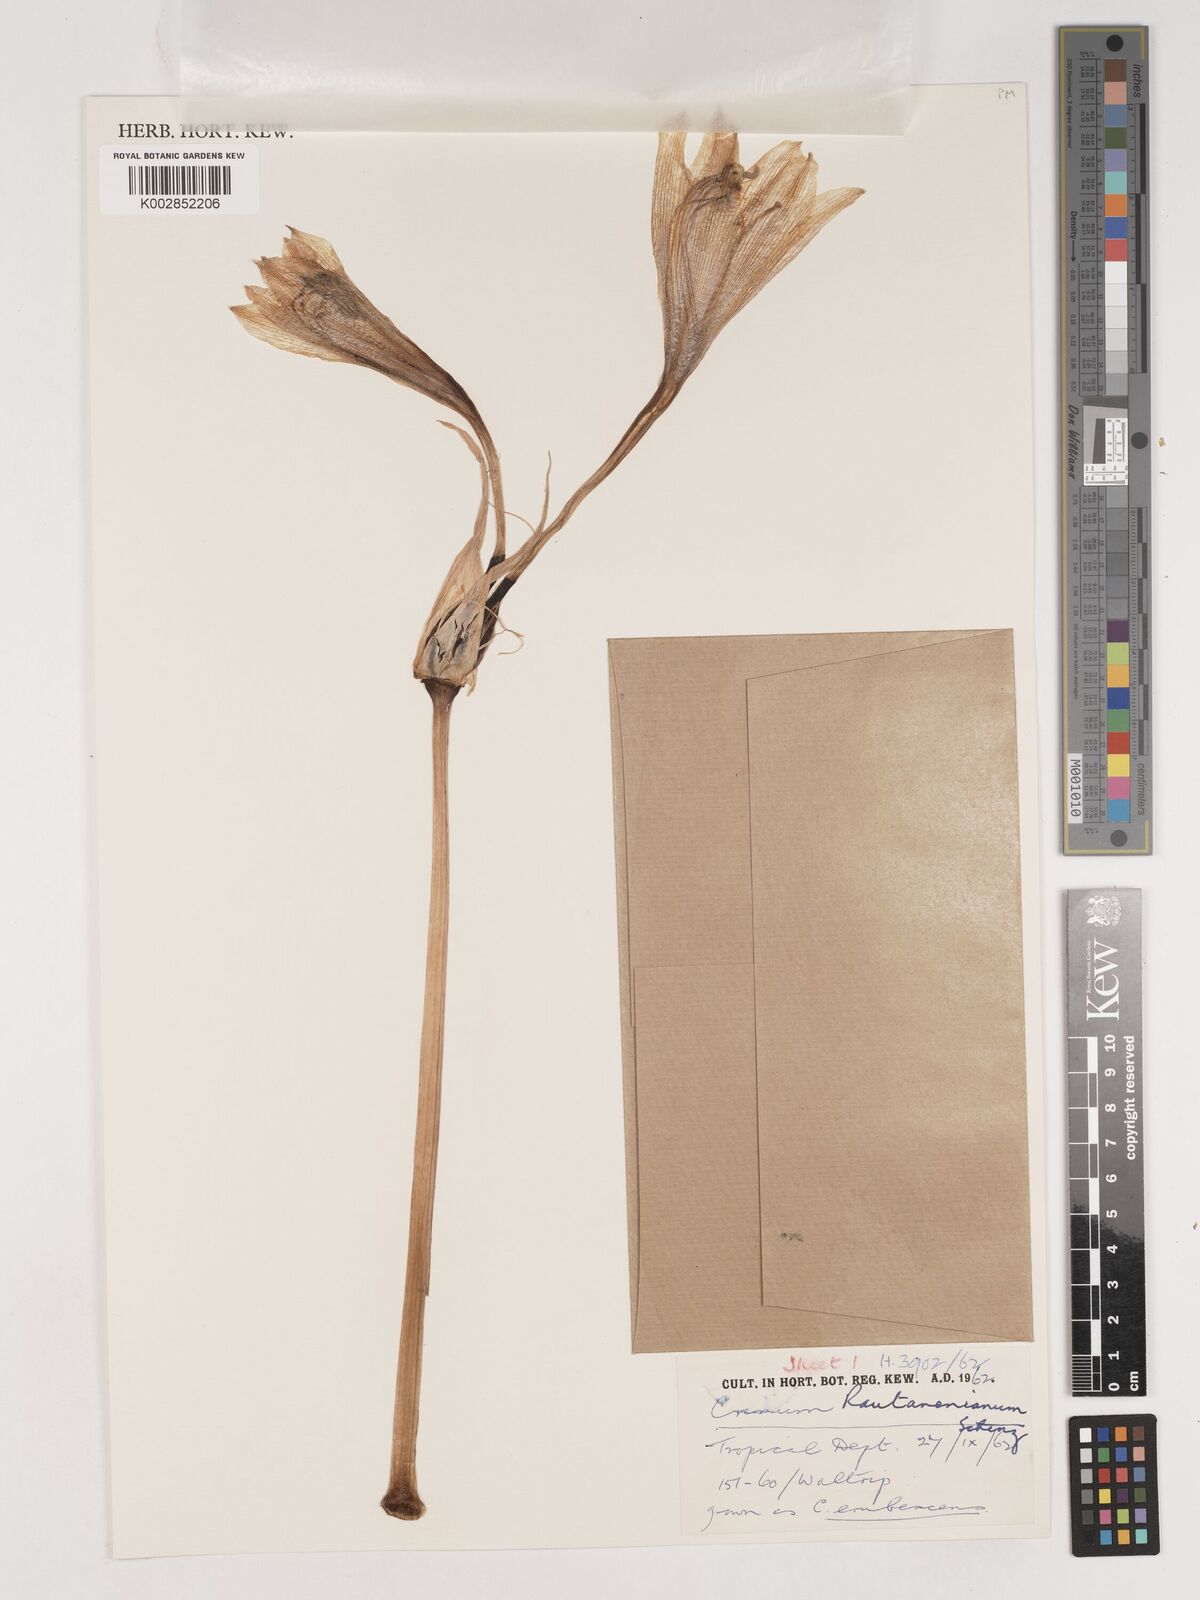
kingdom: Plantae
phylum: Tracheophyta
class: Liliopsida
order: Asparagales
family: Amaryllidaceae
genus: Crinum
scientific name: Crinum rautanenianum
